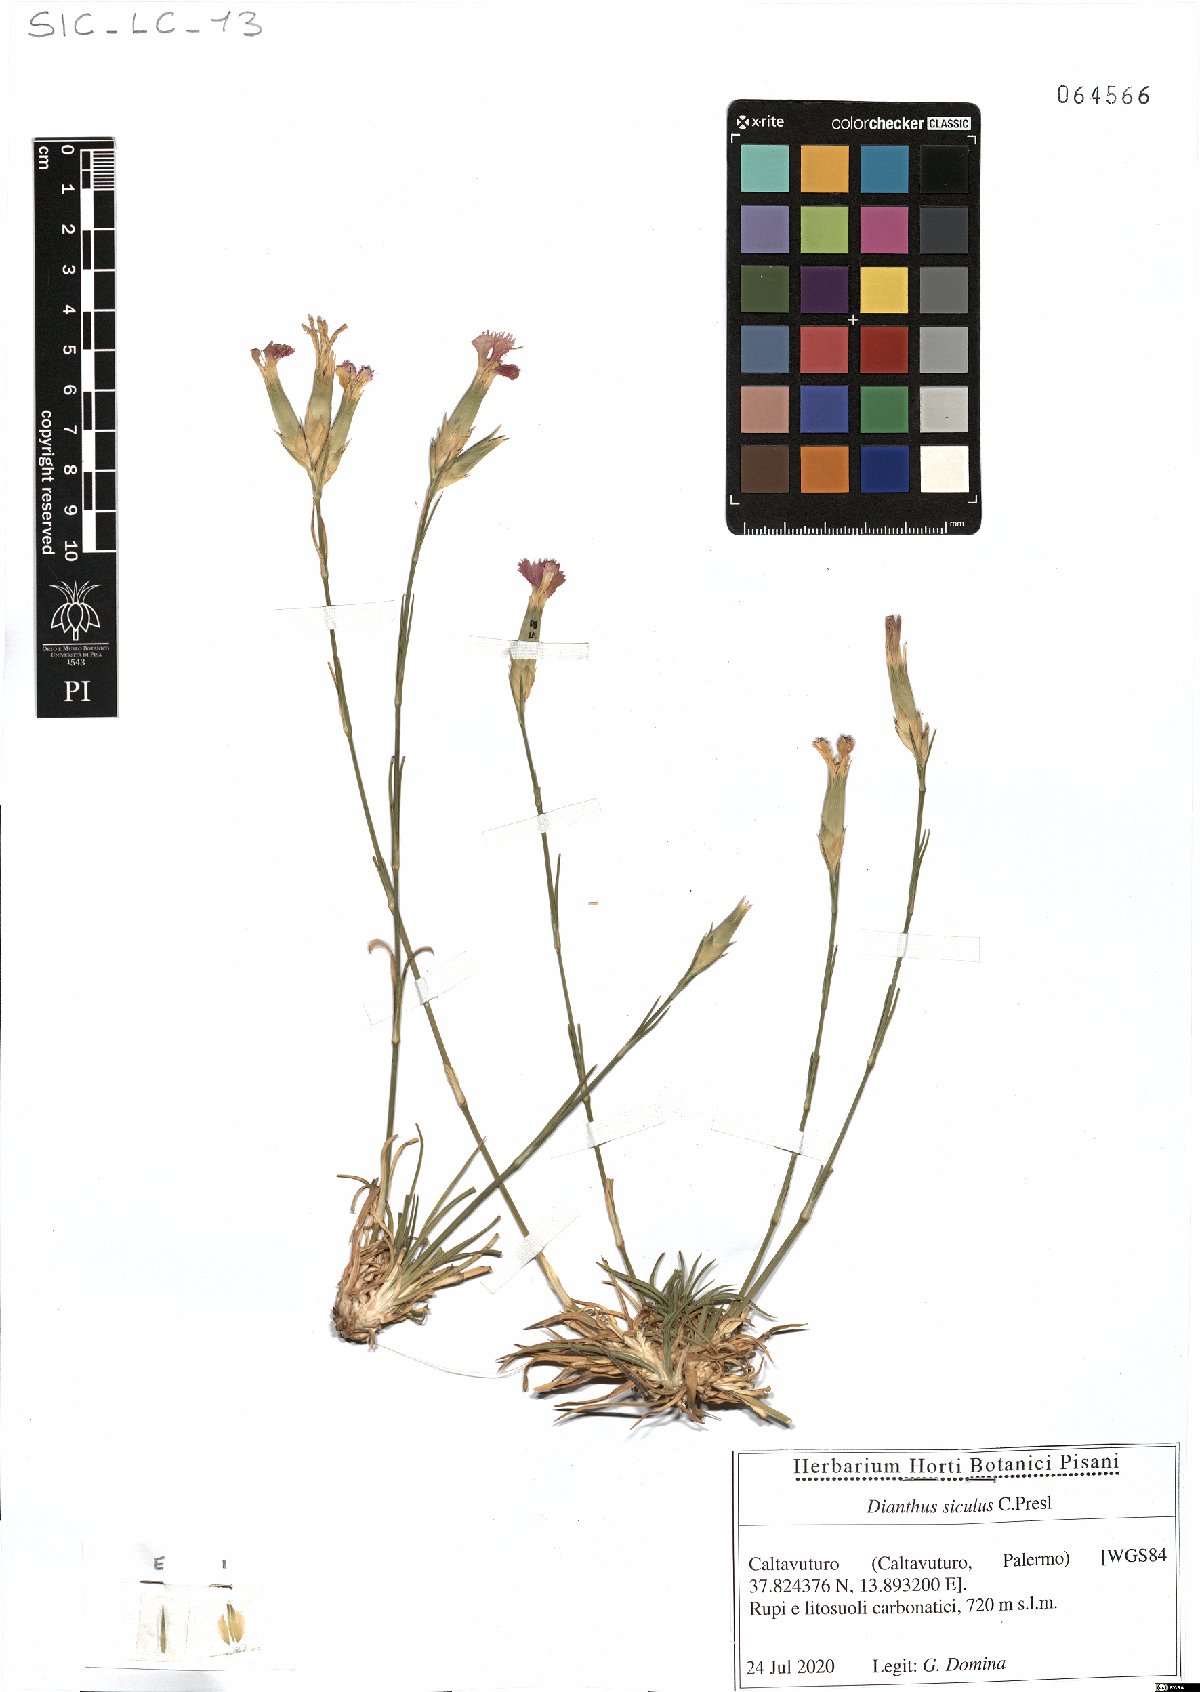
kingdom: Plantae
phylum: Tracheophyta
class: Magnoliopsida
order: Caryophyllales
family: Caryophyllaceae
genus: Dianthus
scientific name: Dianthus siculus
